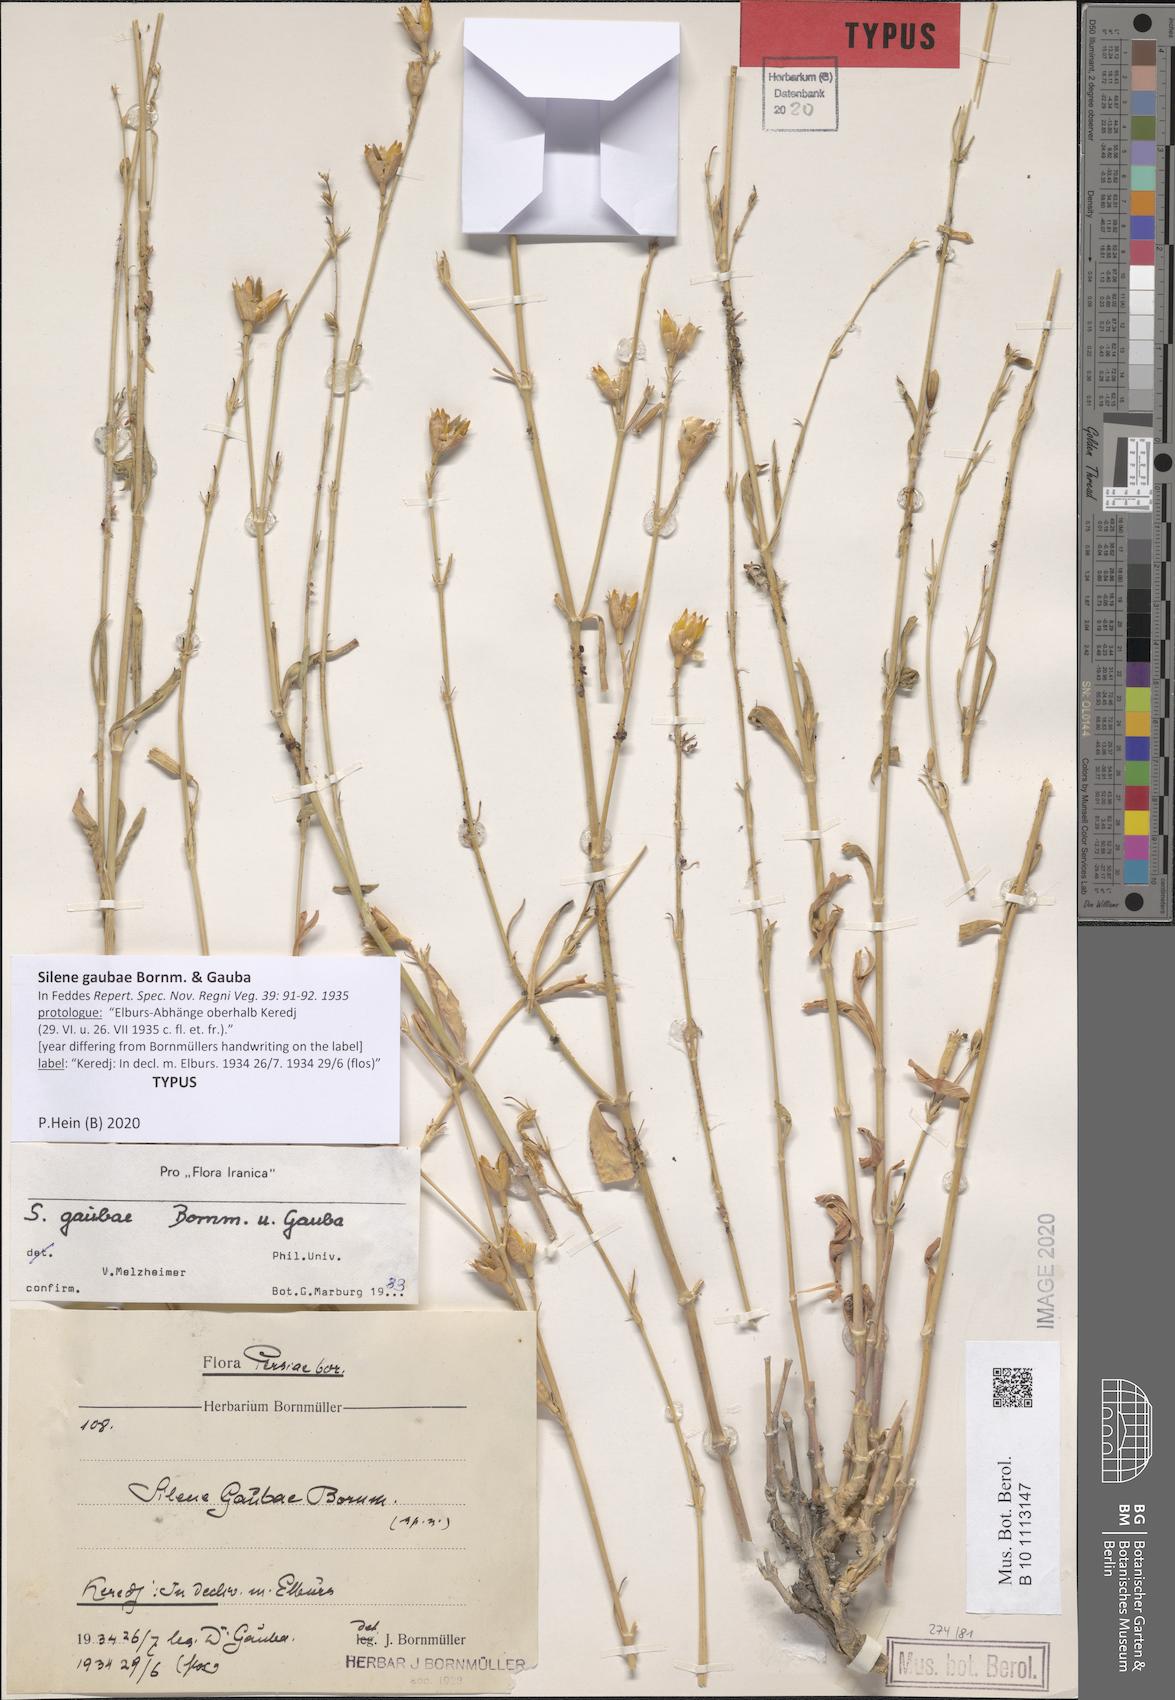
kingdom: Plantae
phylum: Tracheophyta
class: Magnoliopsida
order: Caryophyllales
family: Caryophyllaceae
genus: Silene
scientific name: Silene gaubae
